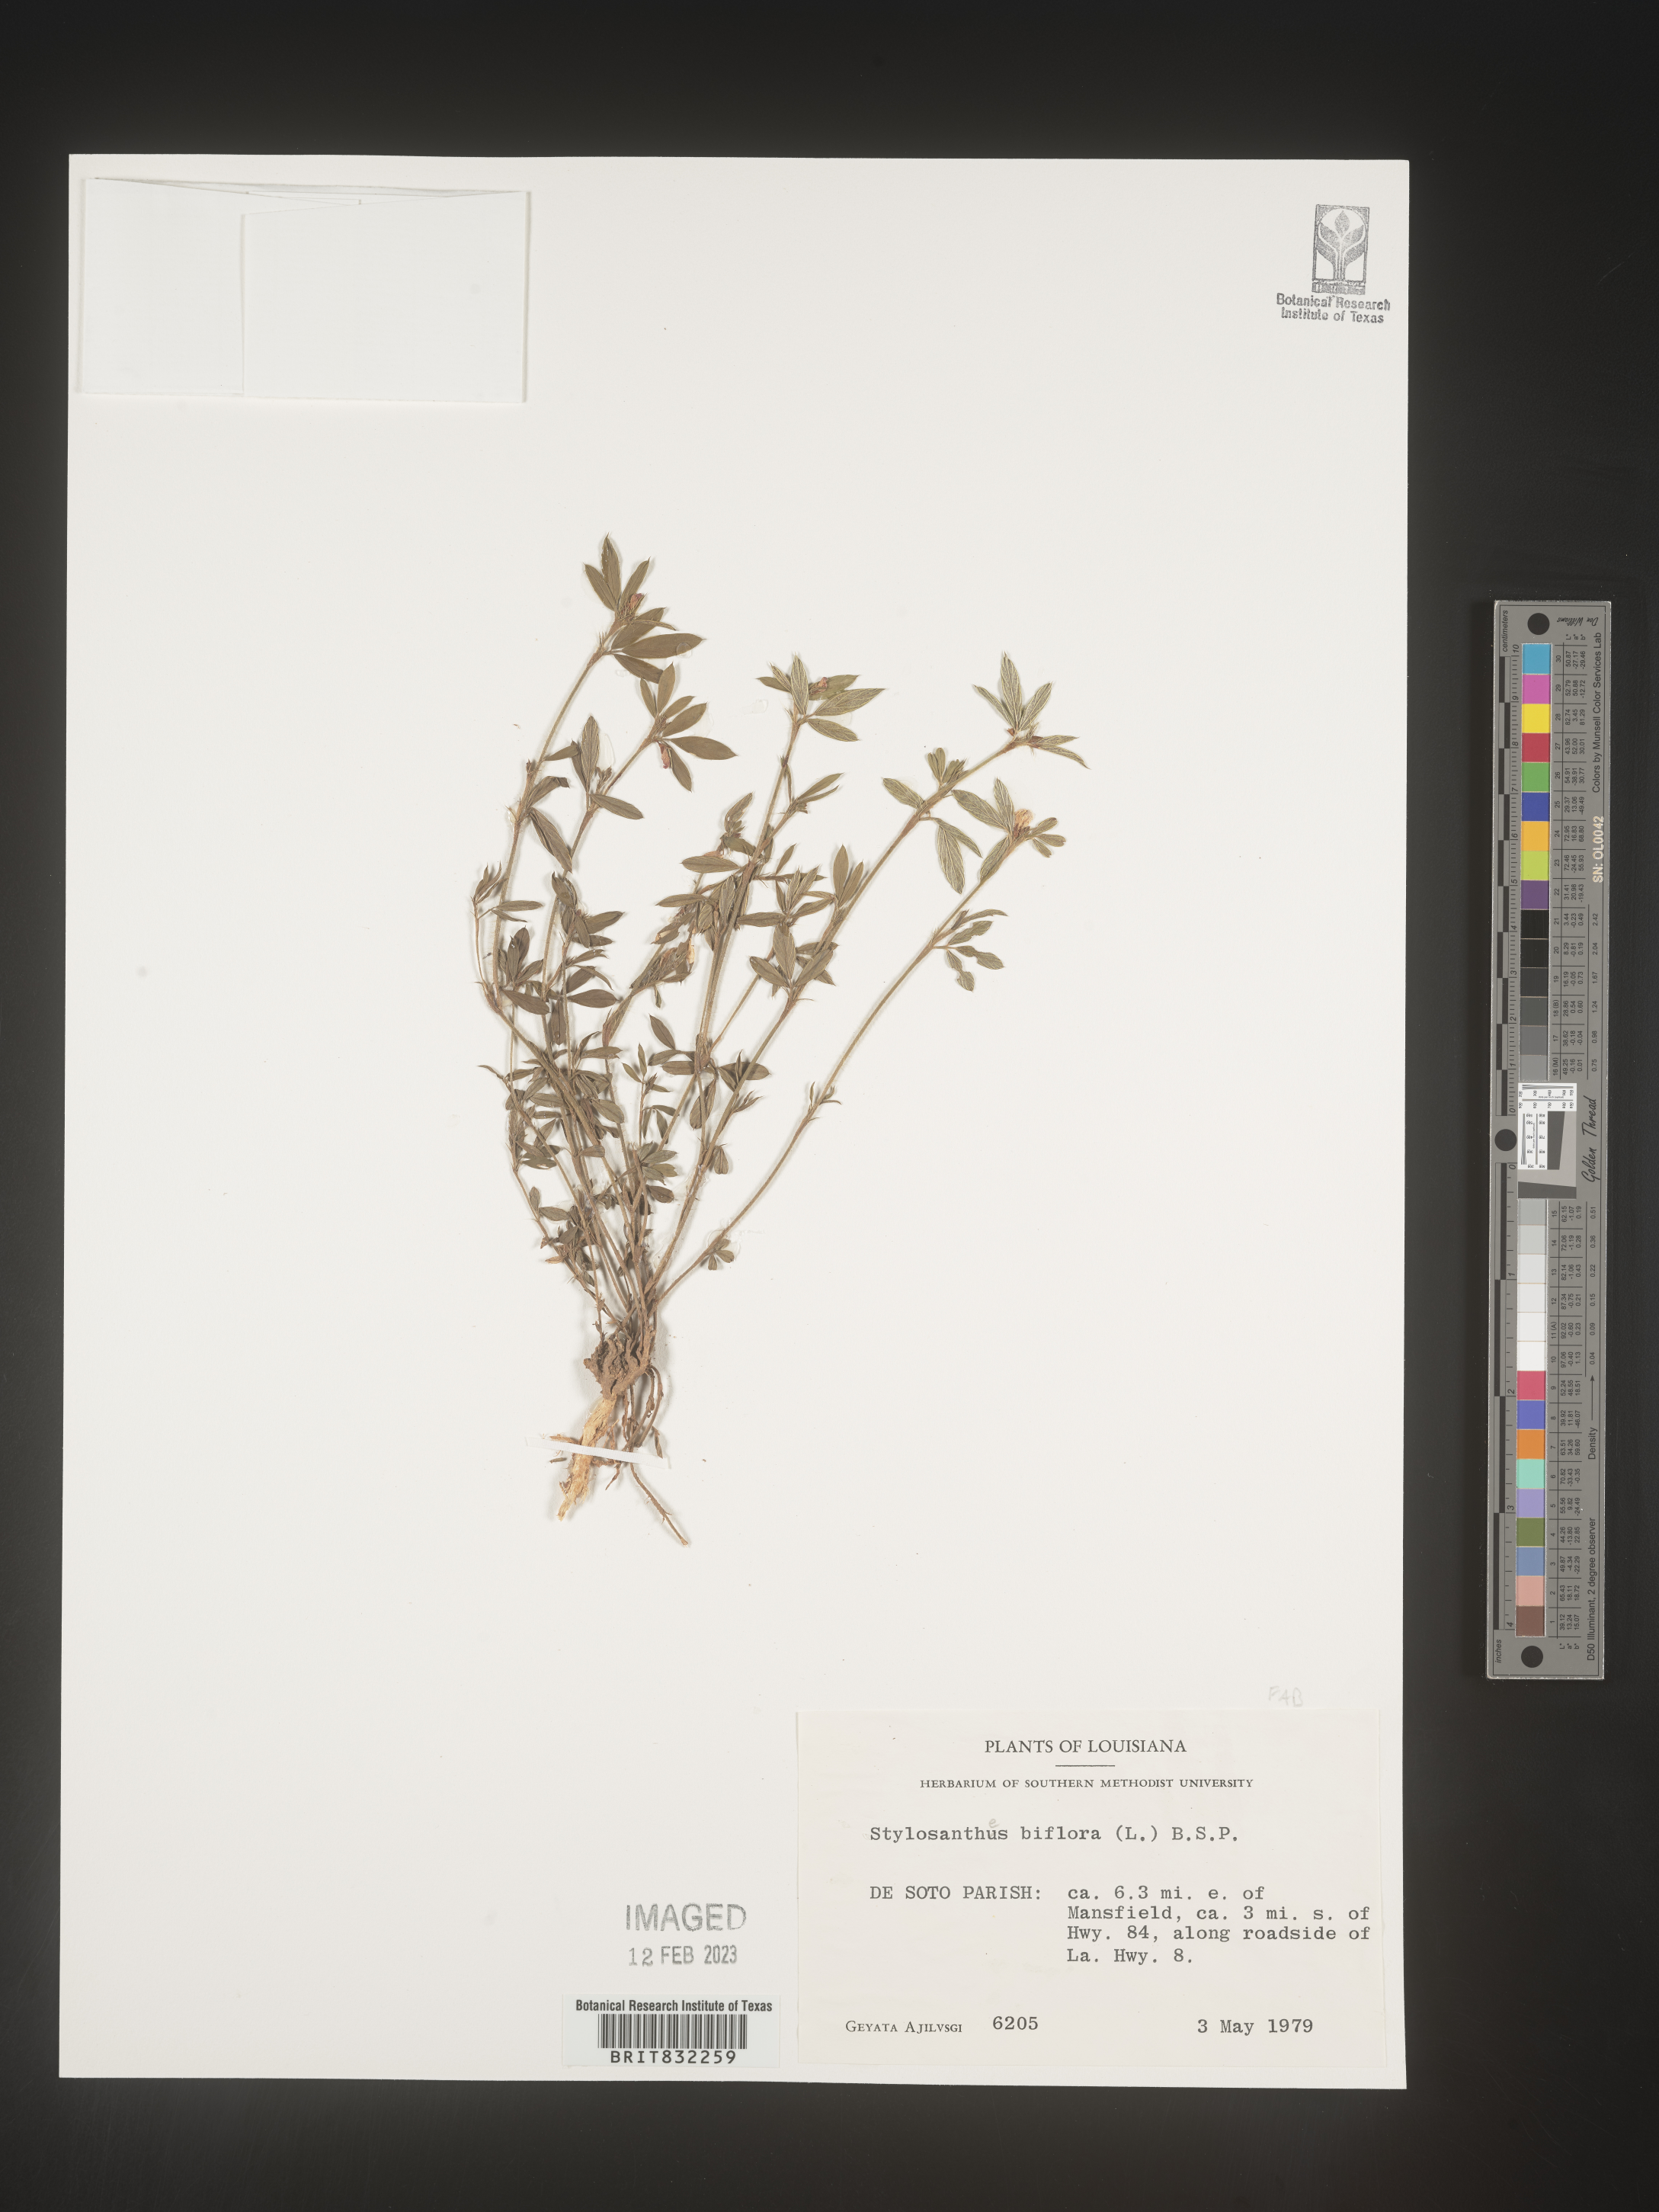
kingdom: Plantae
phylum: Tracheophyta
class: Magnoliopsida
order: Fabales
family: Fabaceae
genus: Stylosanthes
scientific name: Stylosanthes biflora
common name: Two-flower pencil-flower
